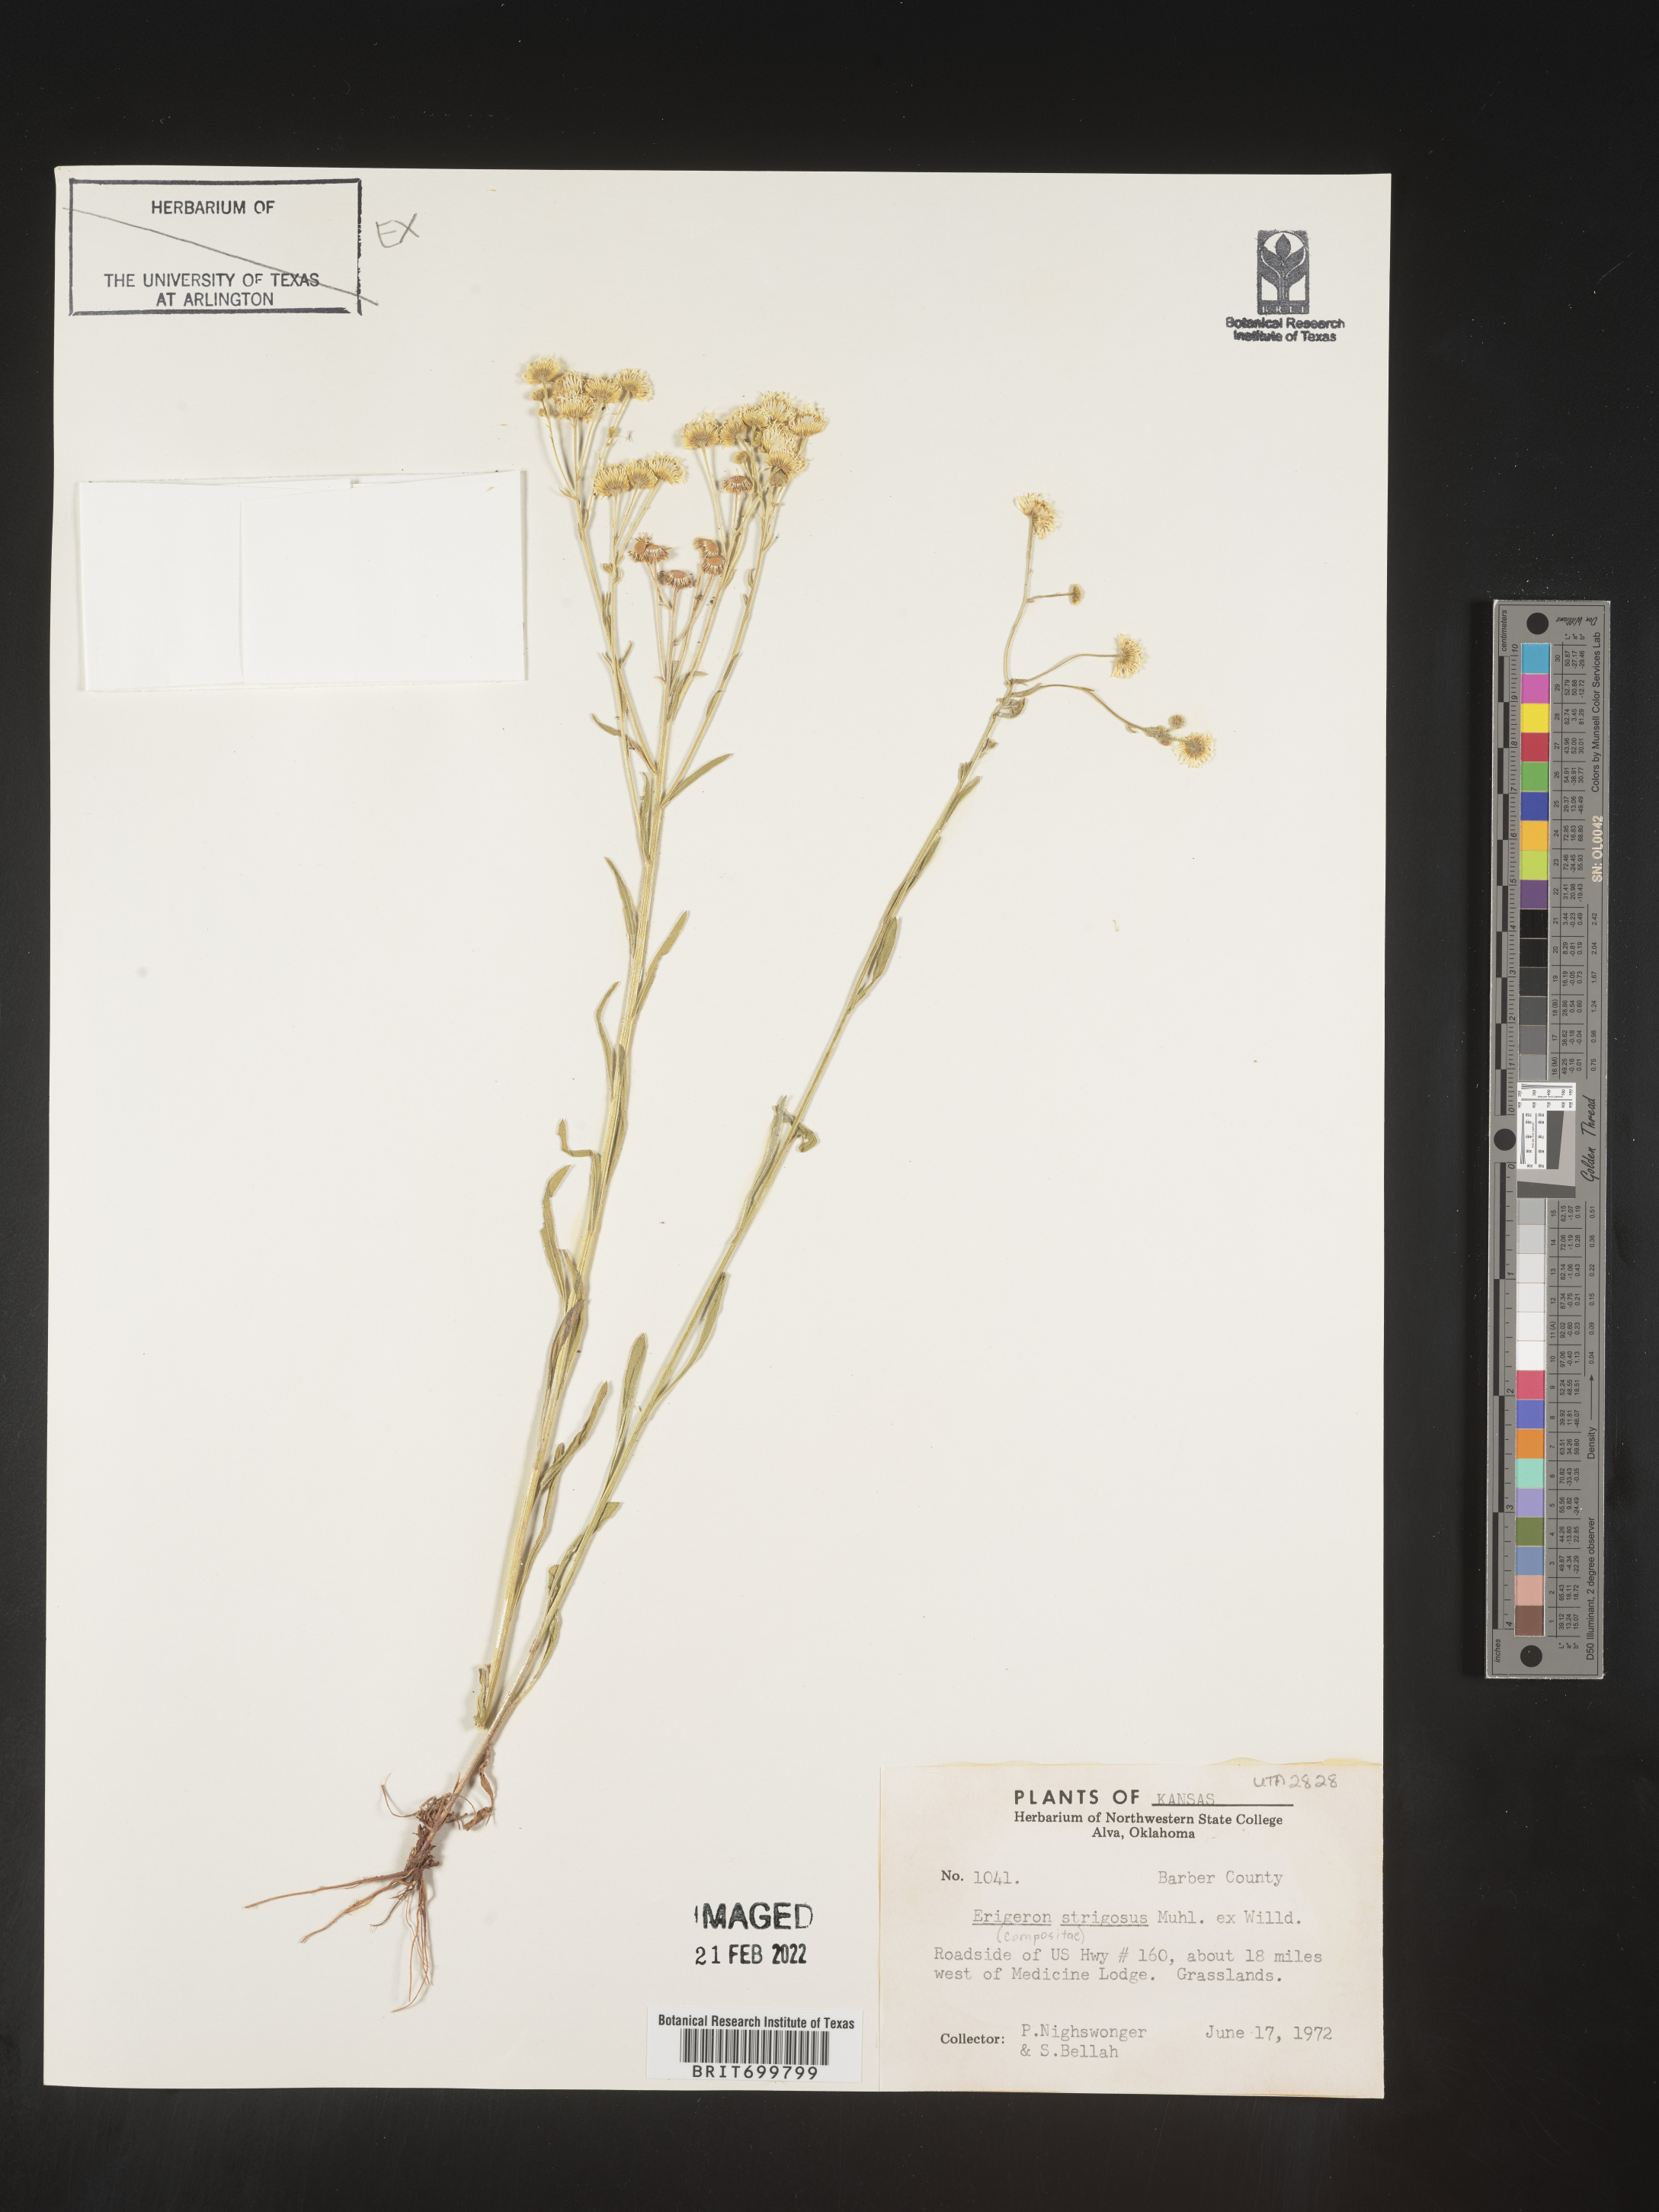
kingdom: Plantae
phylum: Tracheophyta
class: Magnoliopsida
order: Asterales
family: Asteraceae
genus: Erigeron
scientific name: Erigeron strigosus
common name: Common eastern fleabane
